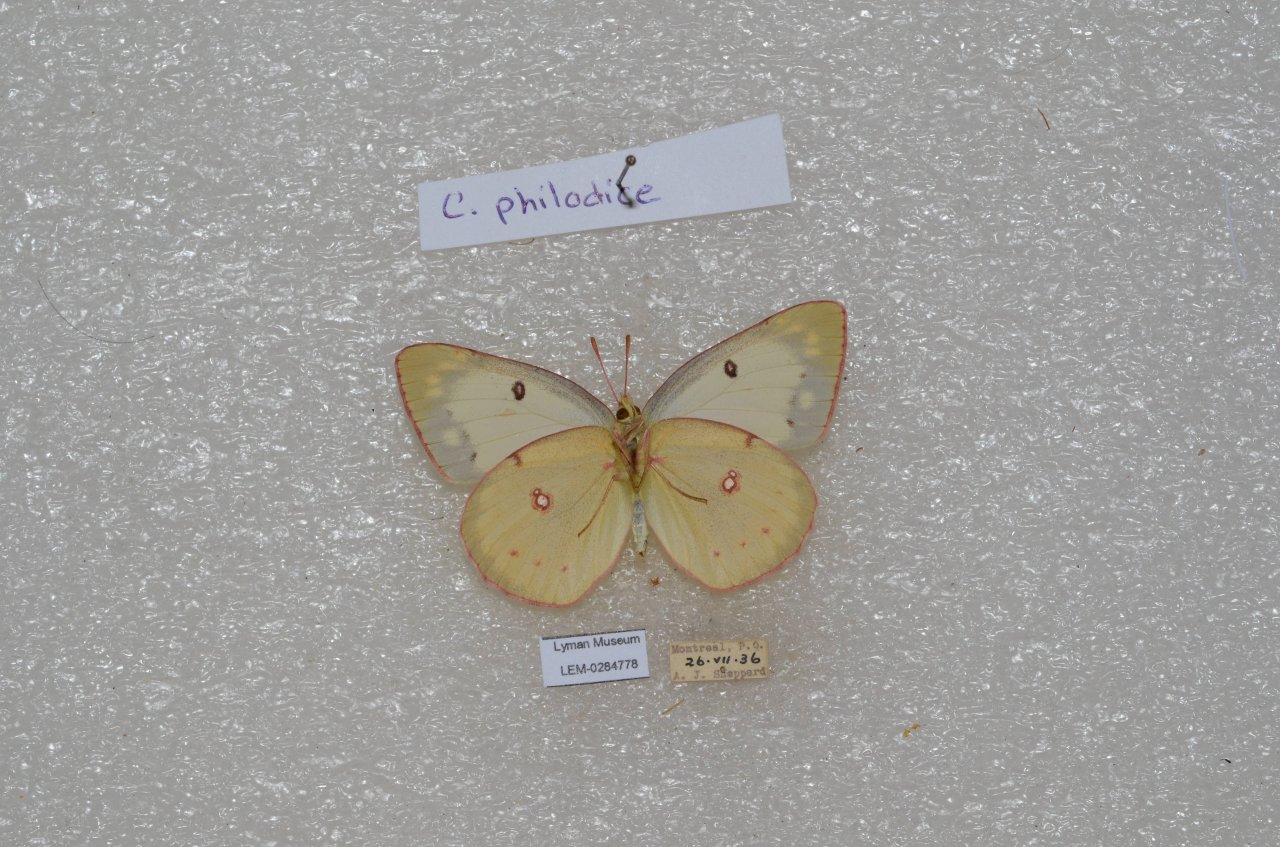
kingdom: Animalia
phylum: Arthropoda
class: Insecta
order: Lepidoptera
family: Pieridae
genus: Colias
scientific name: Colias philodice
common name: Clouded Sulphur
